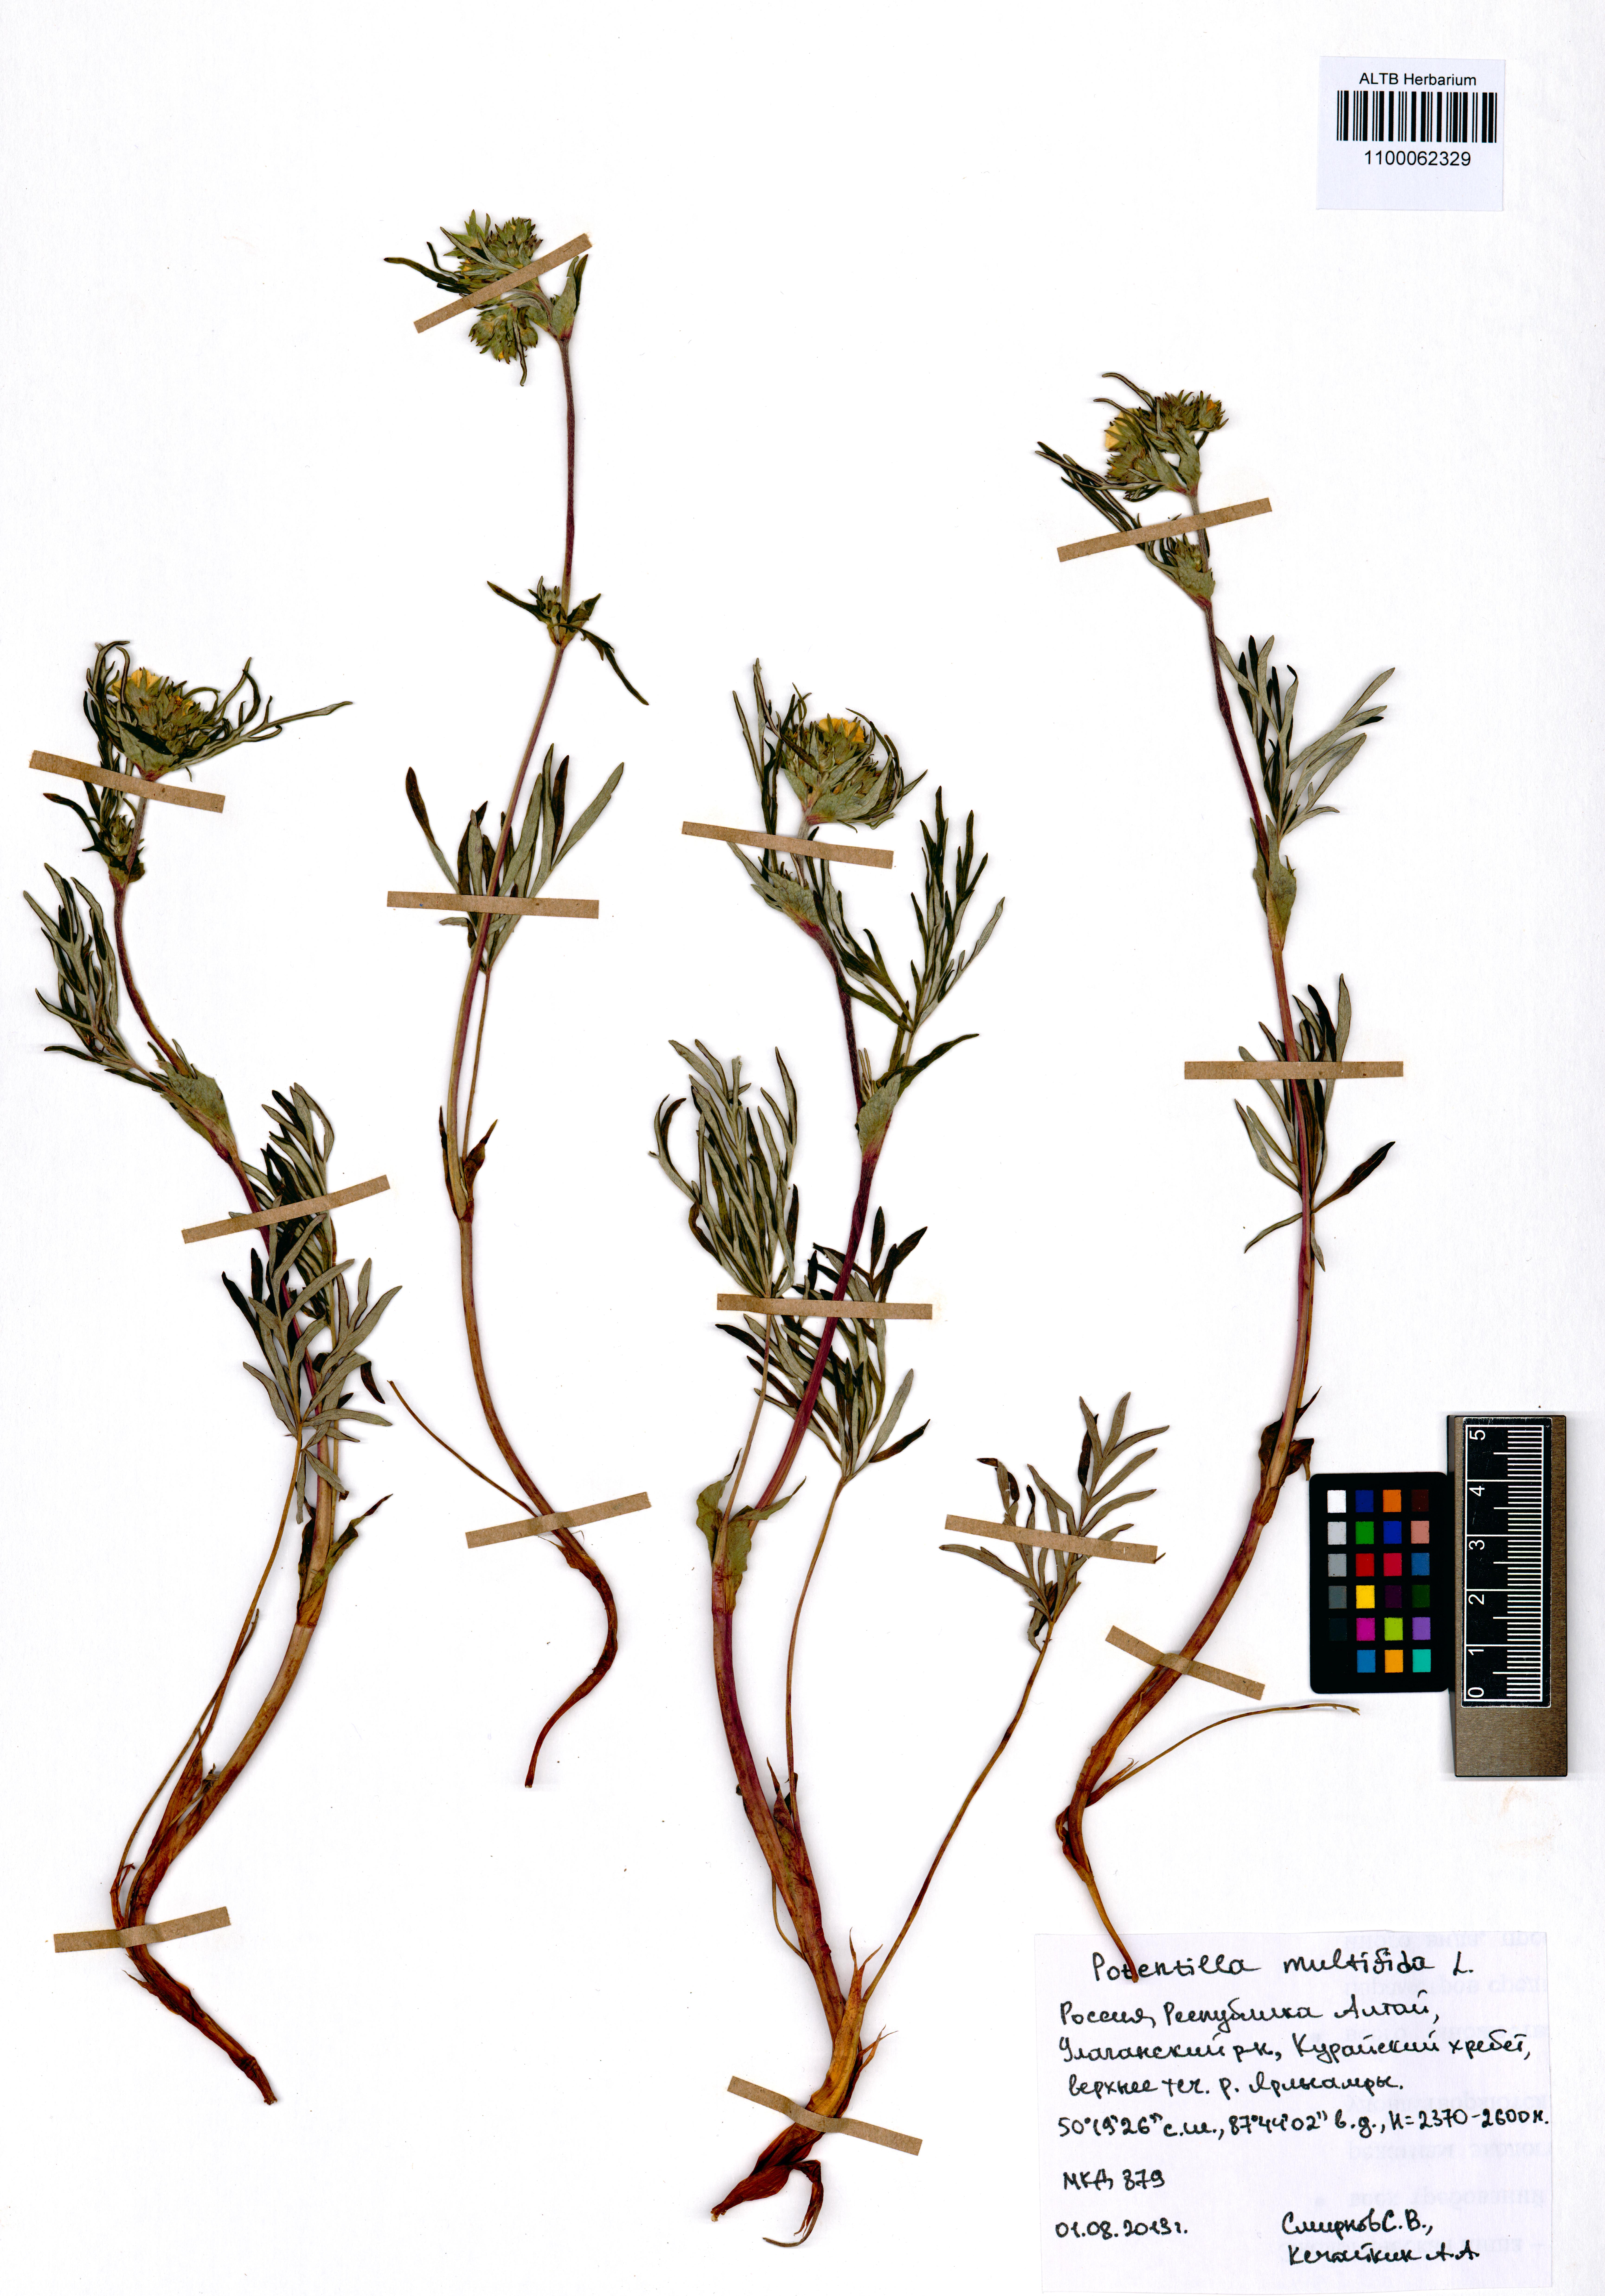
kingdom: Plantae
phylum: Tracheophyta
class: Magnoliopsida
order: Rosales
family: Rosaceae
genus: Potentilla
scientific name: Potentilla multifida
